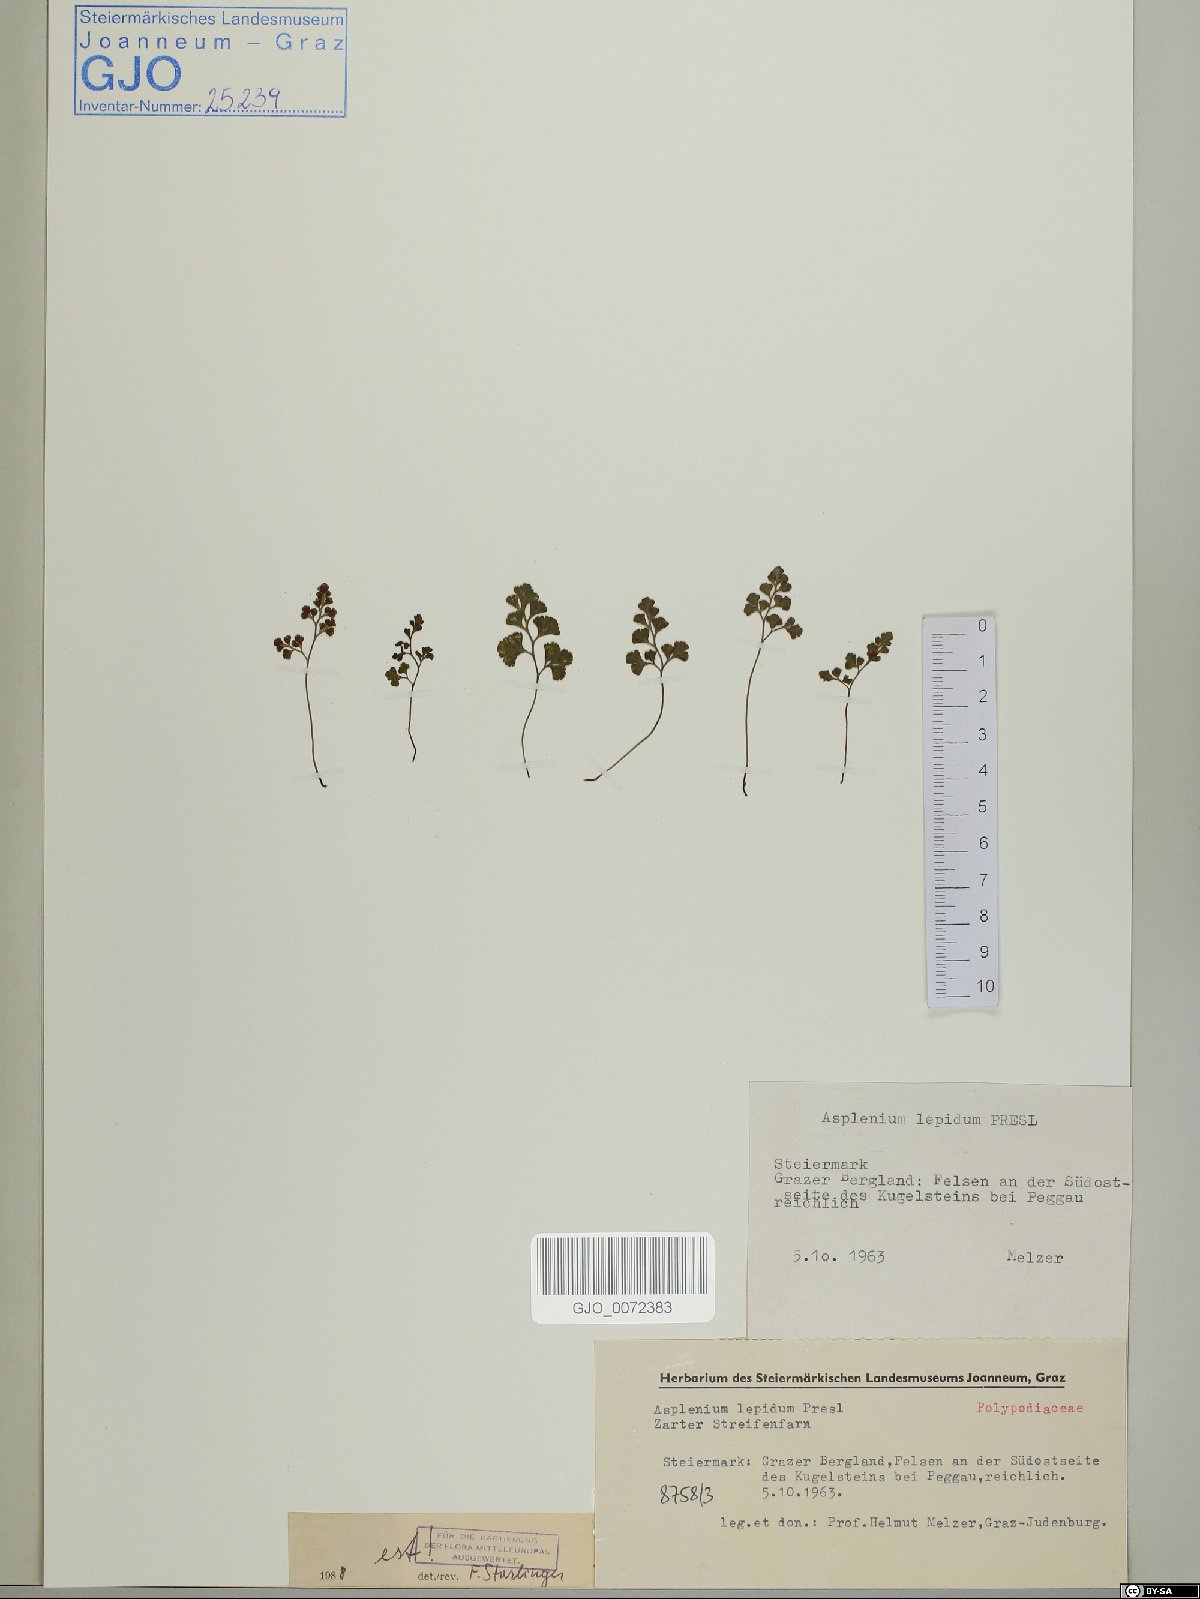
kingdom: Plantae
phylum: Tracheophyta
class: Polypodiopsida
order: Polypodiales
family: Aspleniaceae
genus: Asplenium
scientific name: Asplenium lepidum
